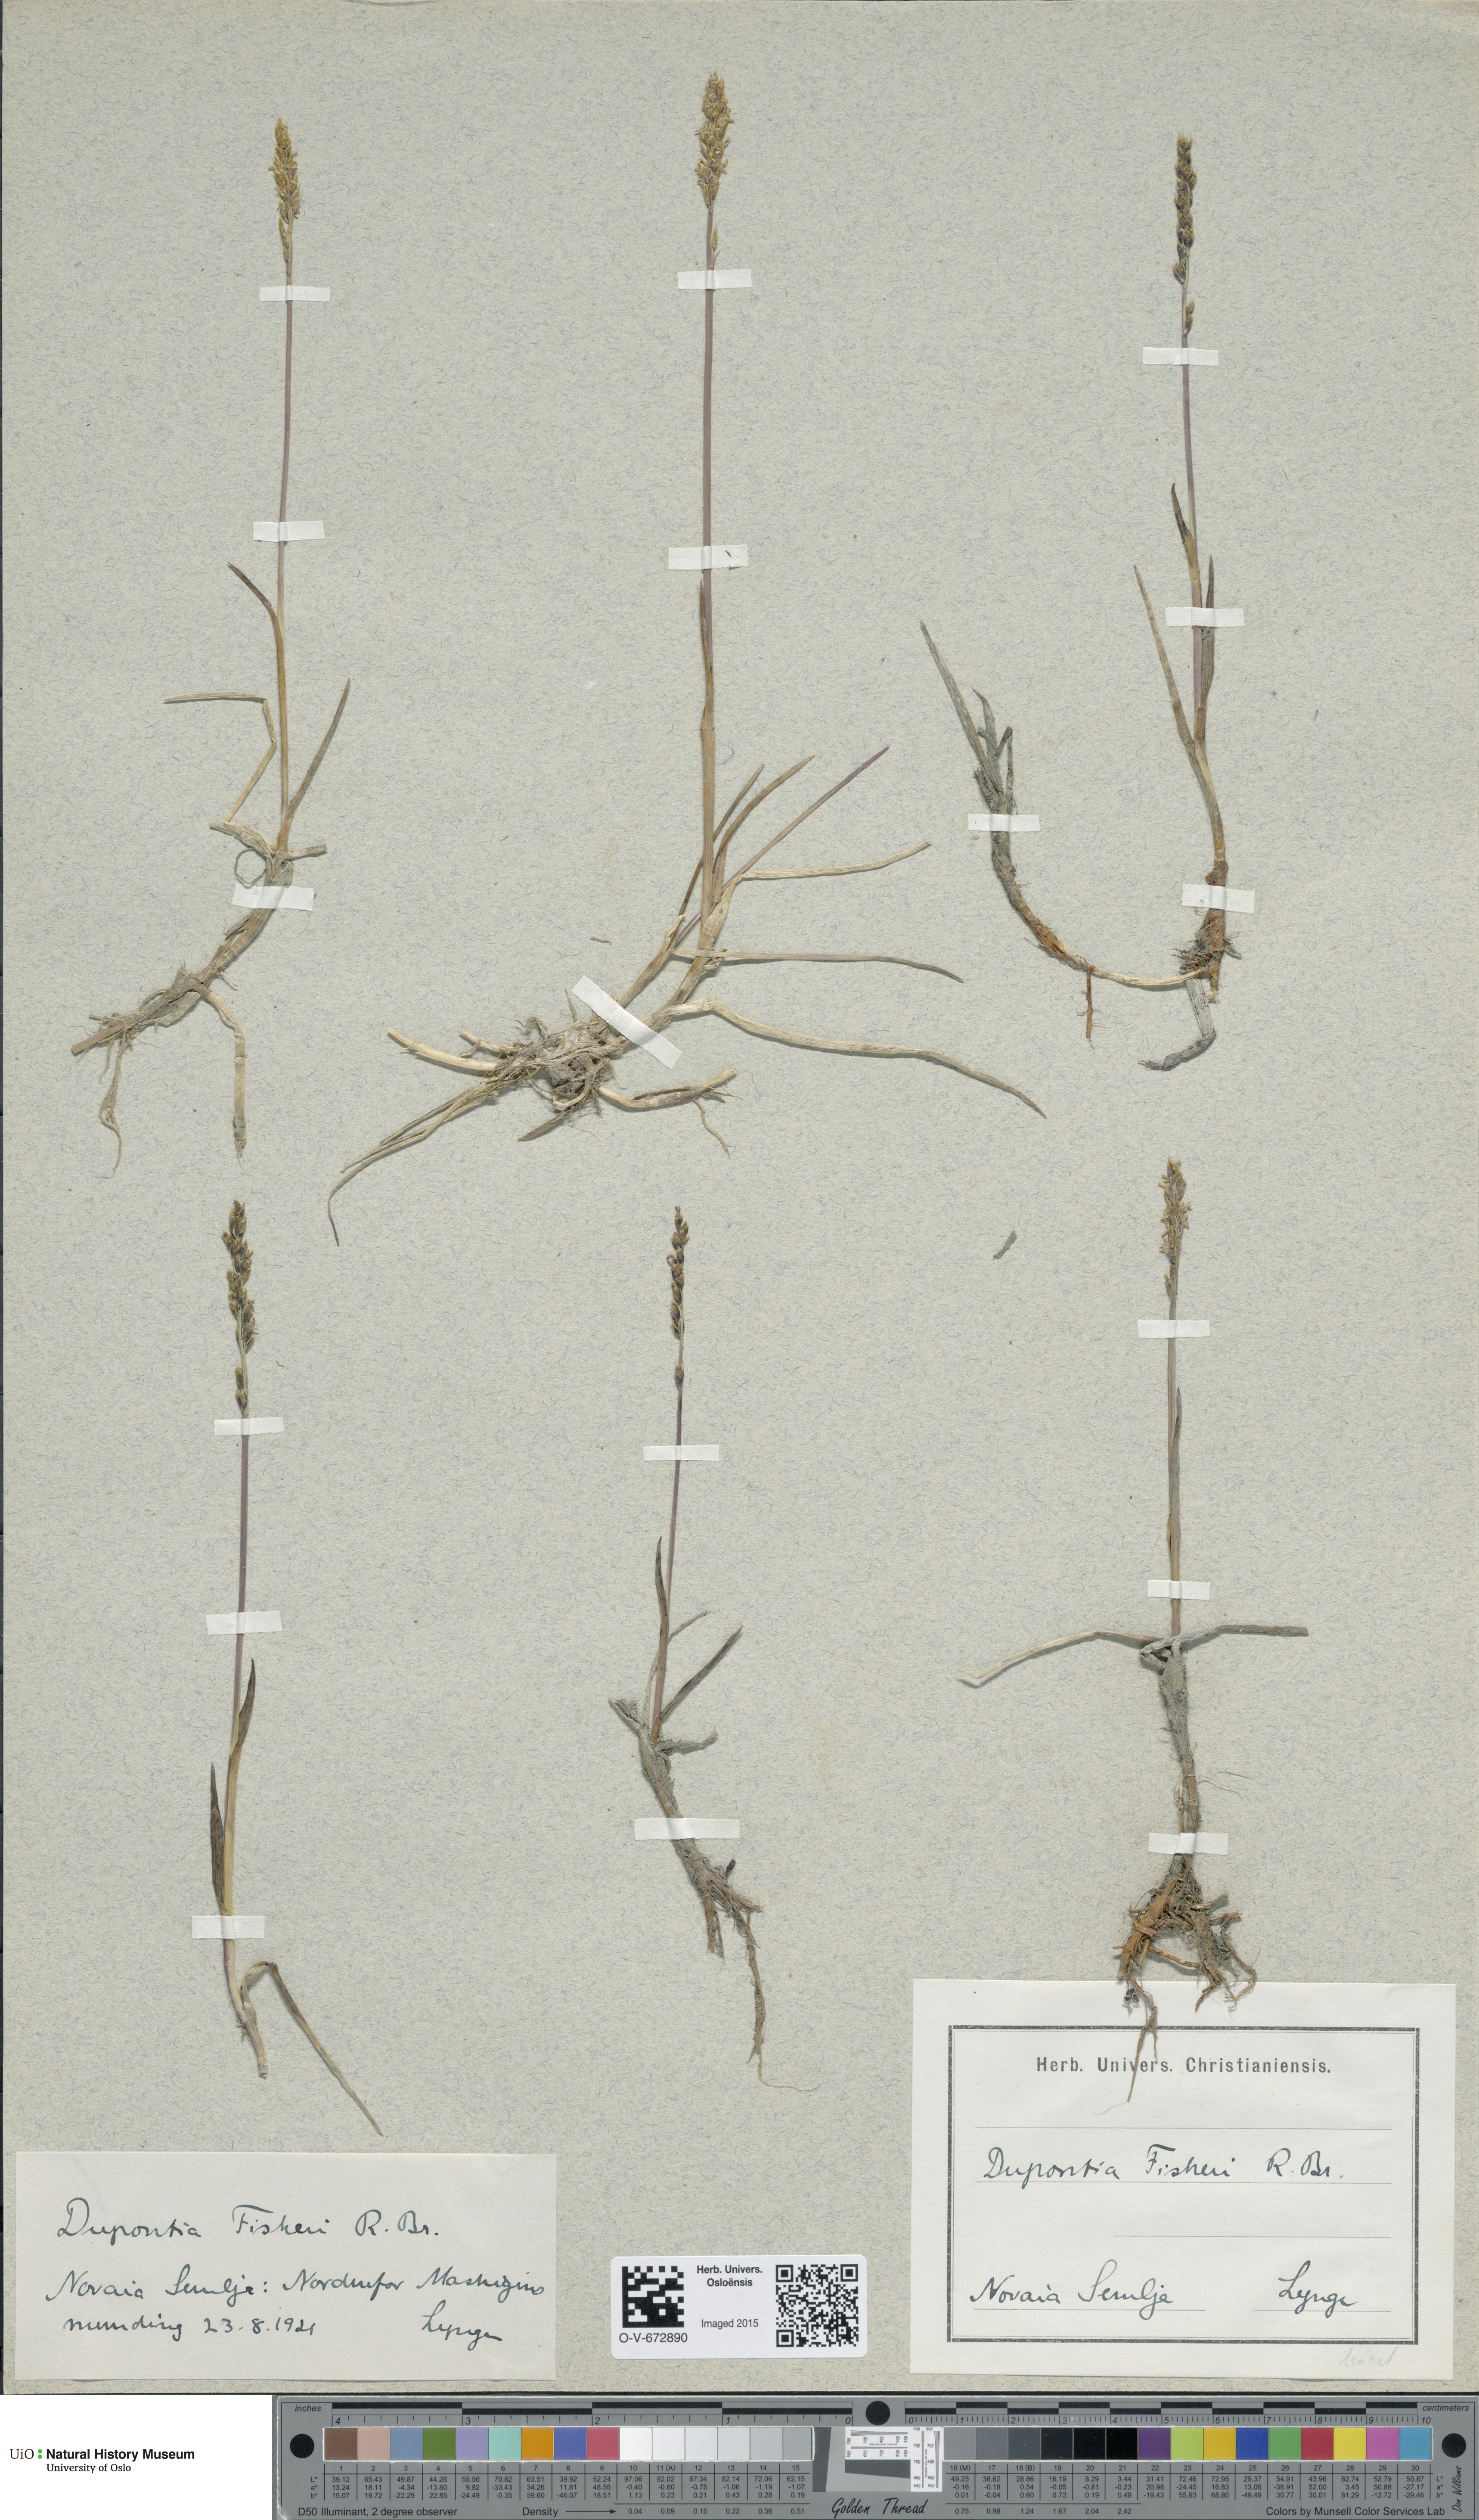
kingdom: Plantae
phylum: Tracheophyta
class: Liliopsida
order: Poales
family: Poaceae
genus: Dupontia
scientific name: Dupontia fisheri
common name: Tundra grass
